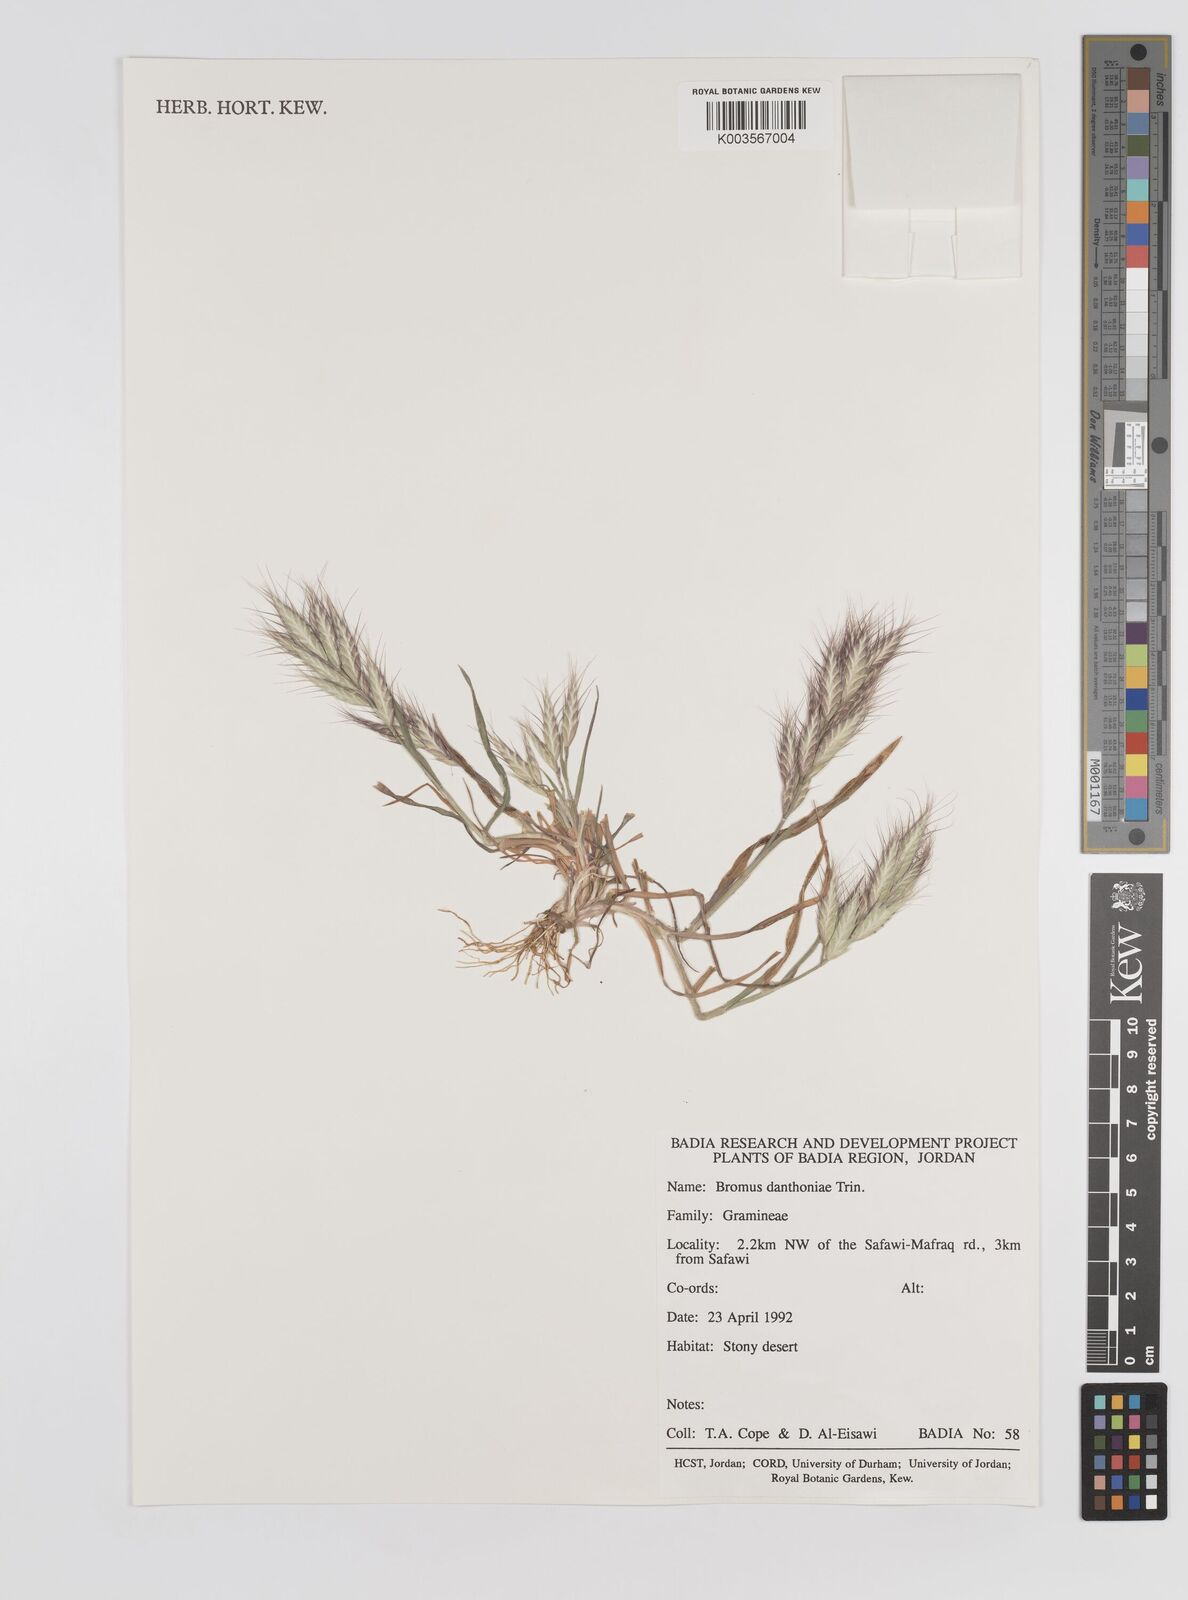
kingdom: Plantae
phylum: Tracheophyta
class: Liliopsida
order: Poales
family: Poaceae
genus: Bromus
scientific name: Bromus danthoniae
